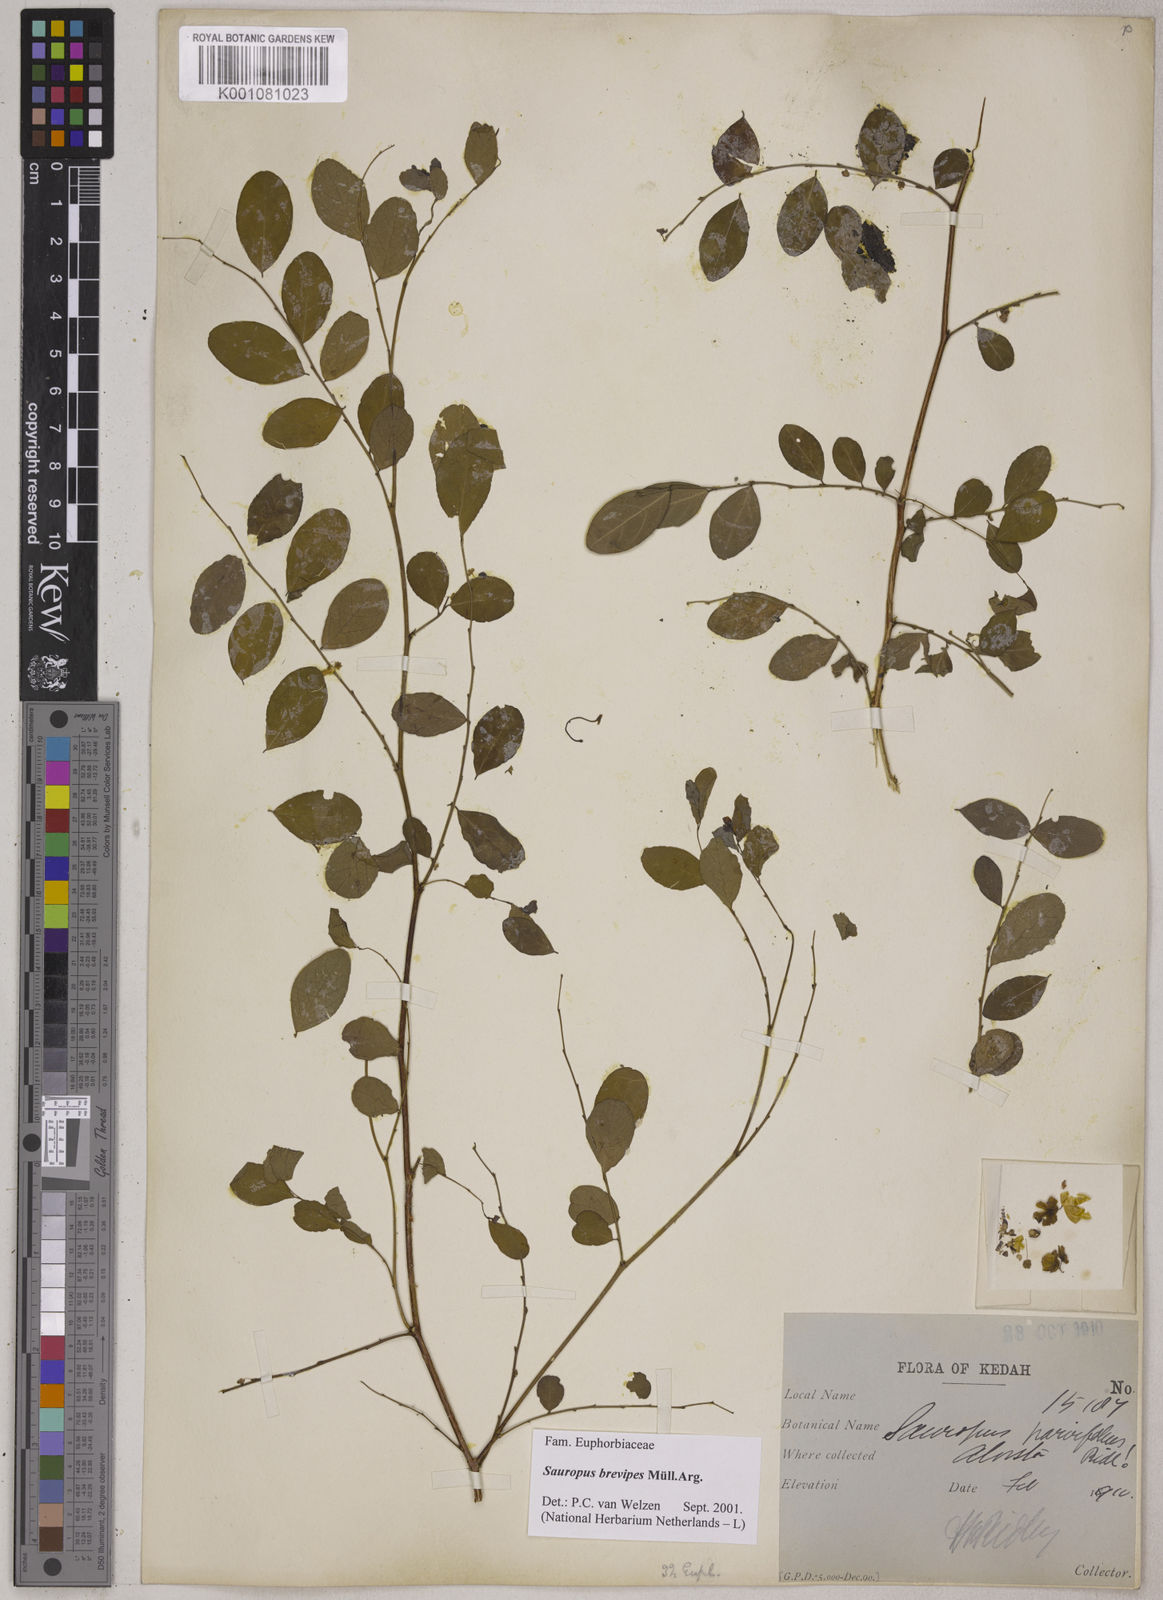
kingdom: Animalia
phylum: Chordata
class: Amphibia
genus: Sauropus
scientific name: Sauropus
